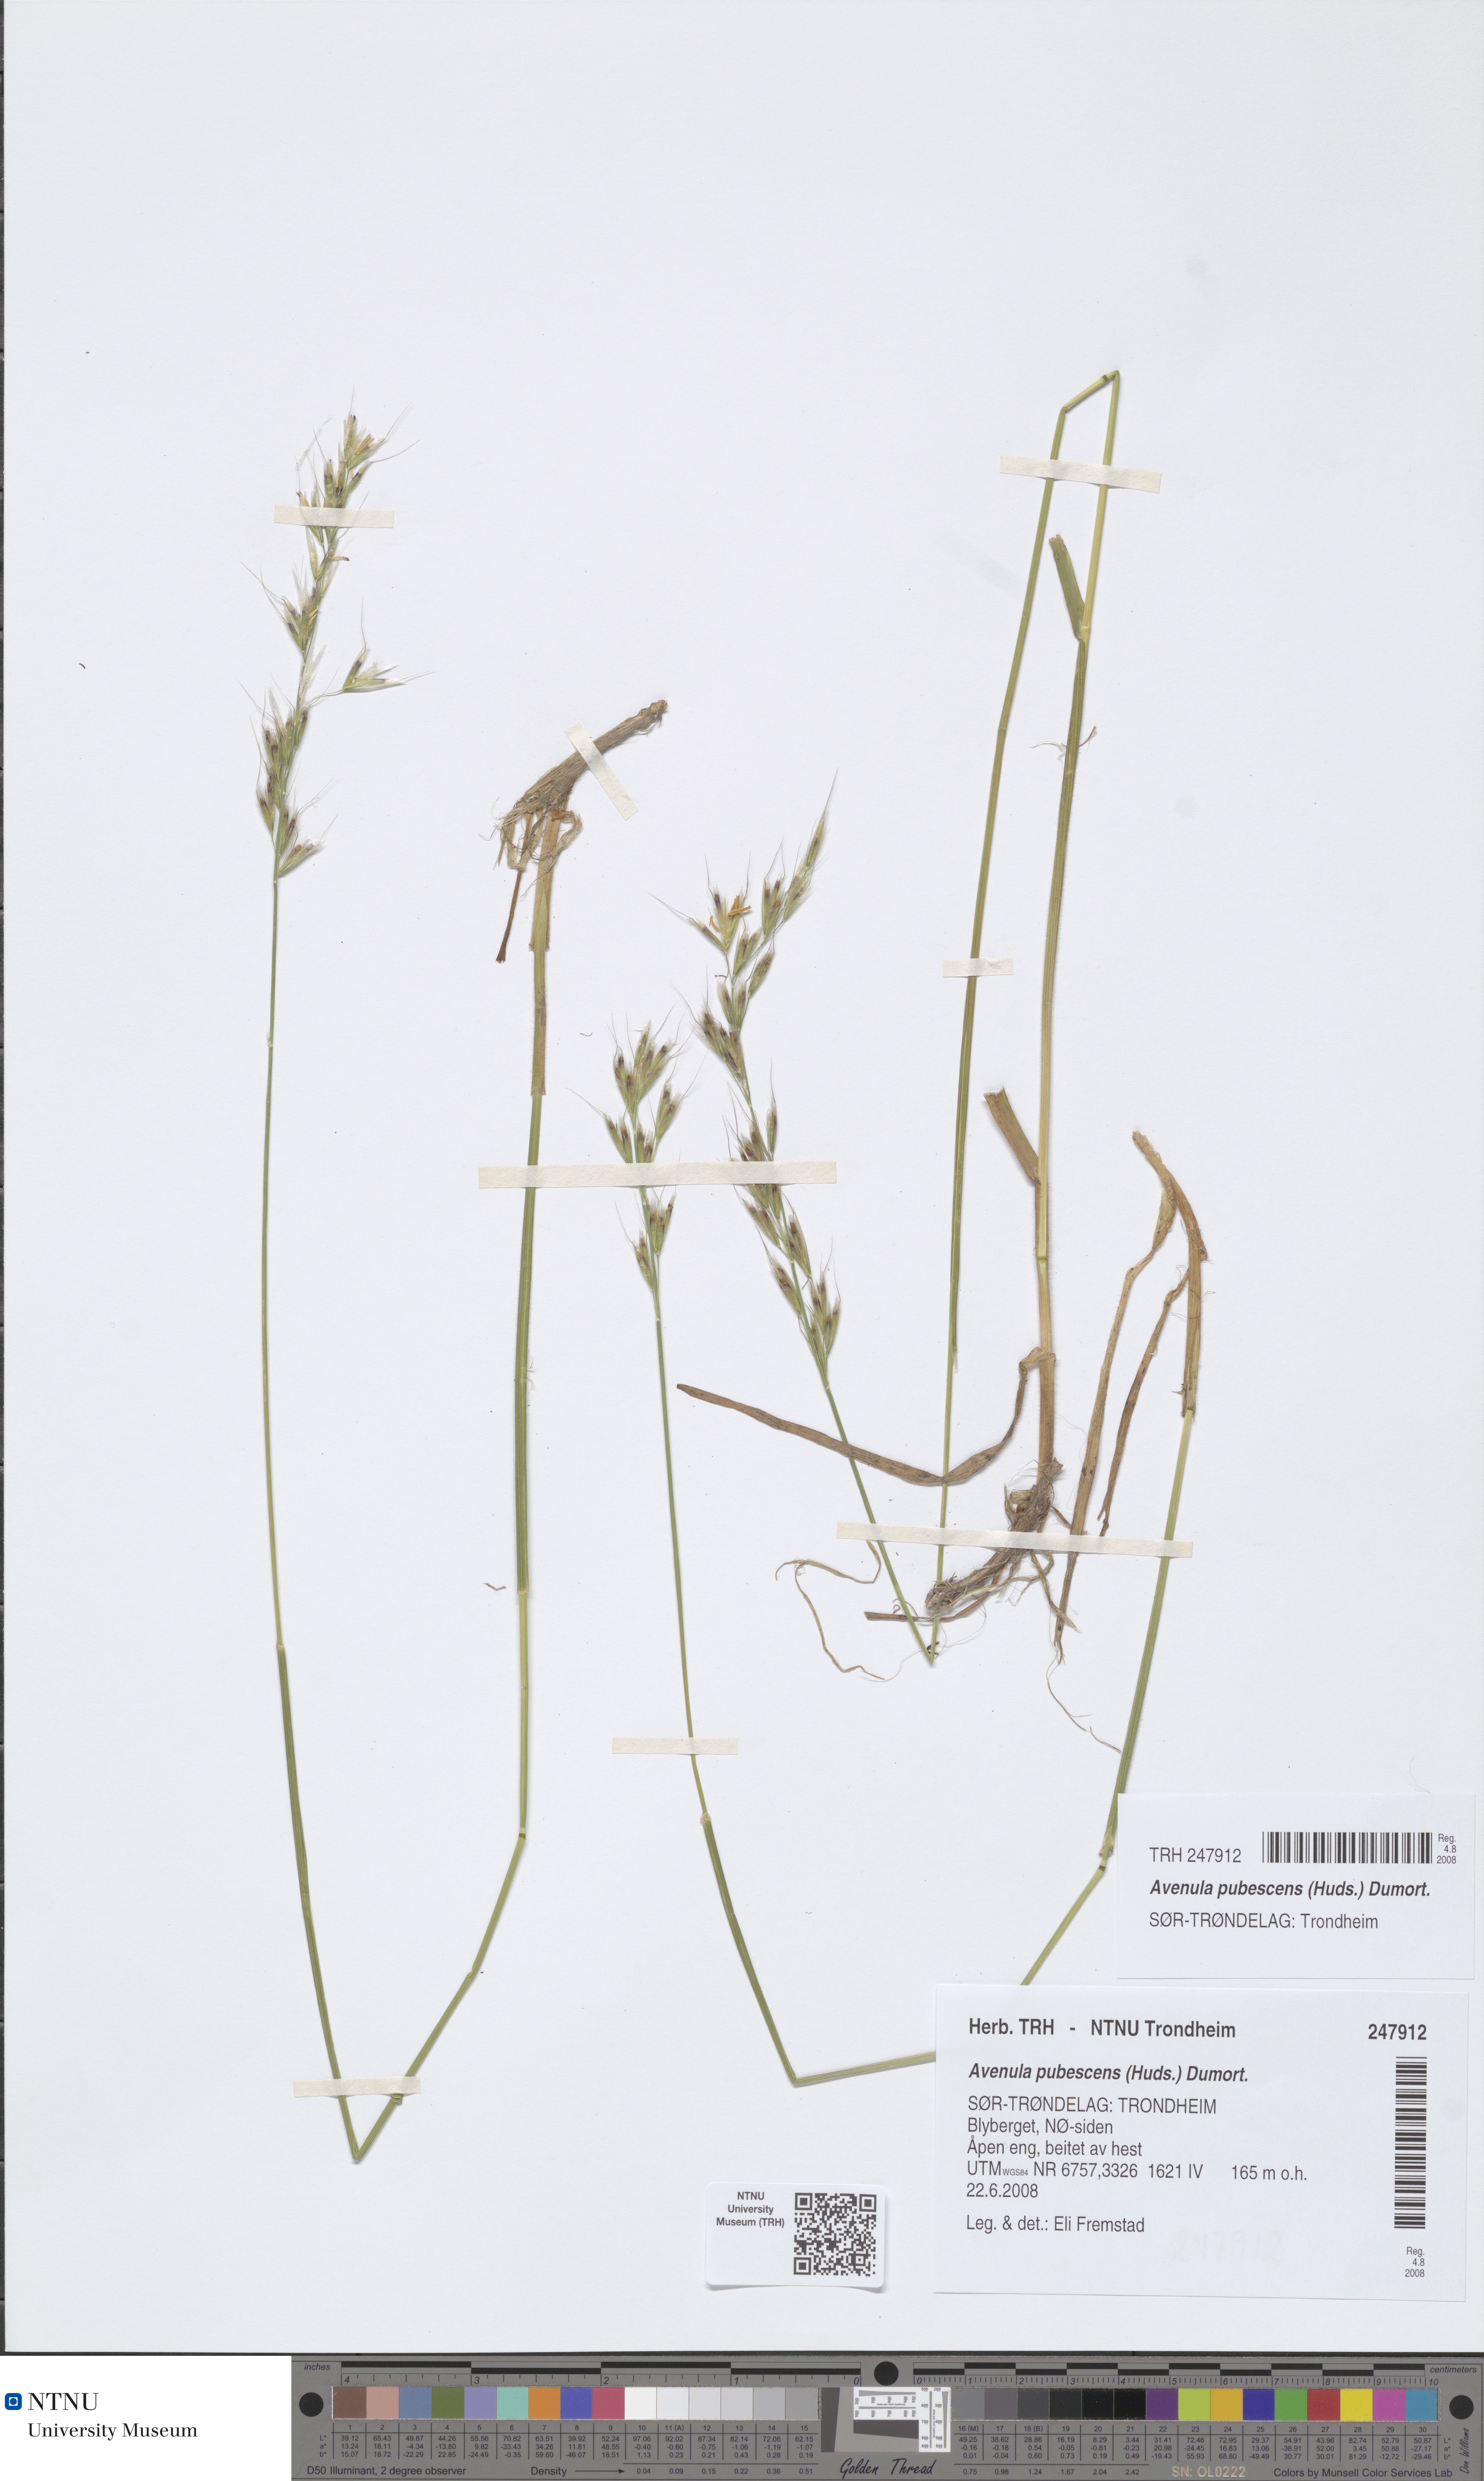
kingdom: Plantae
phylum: Tracheophyta
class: Liliopsida
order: Poales
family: Poaceae
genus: Avenula
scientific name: Avenula pubescens
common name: Downy alpine oatgrass
